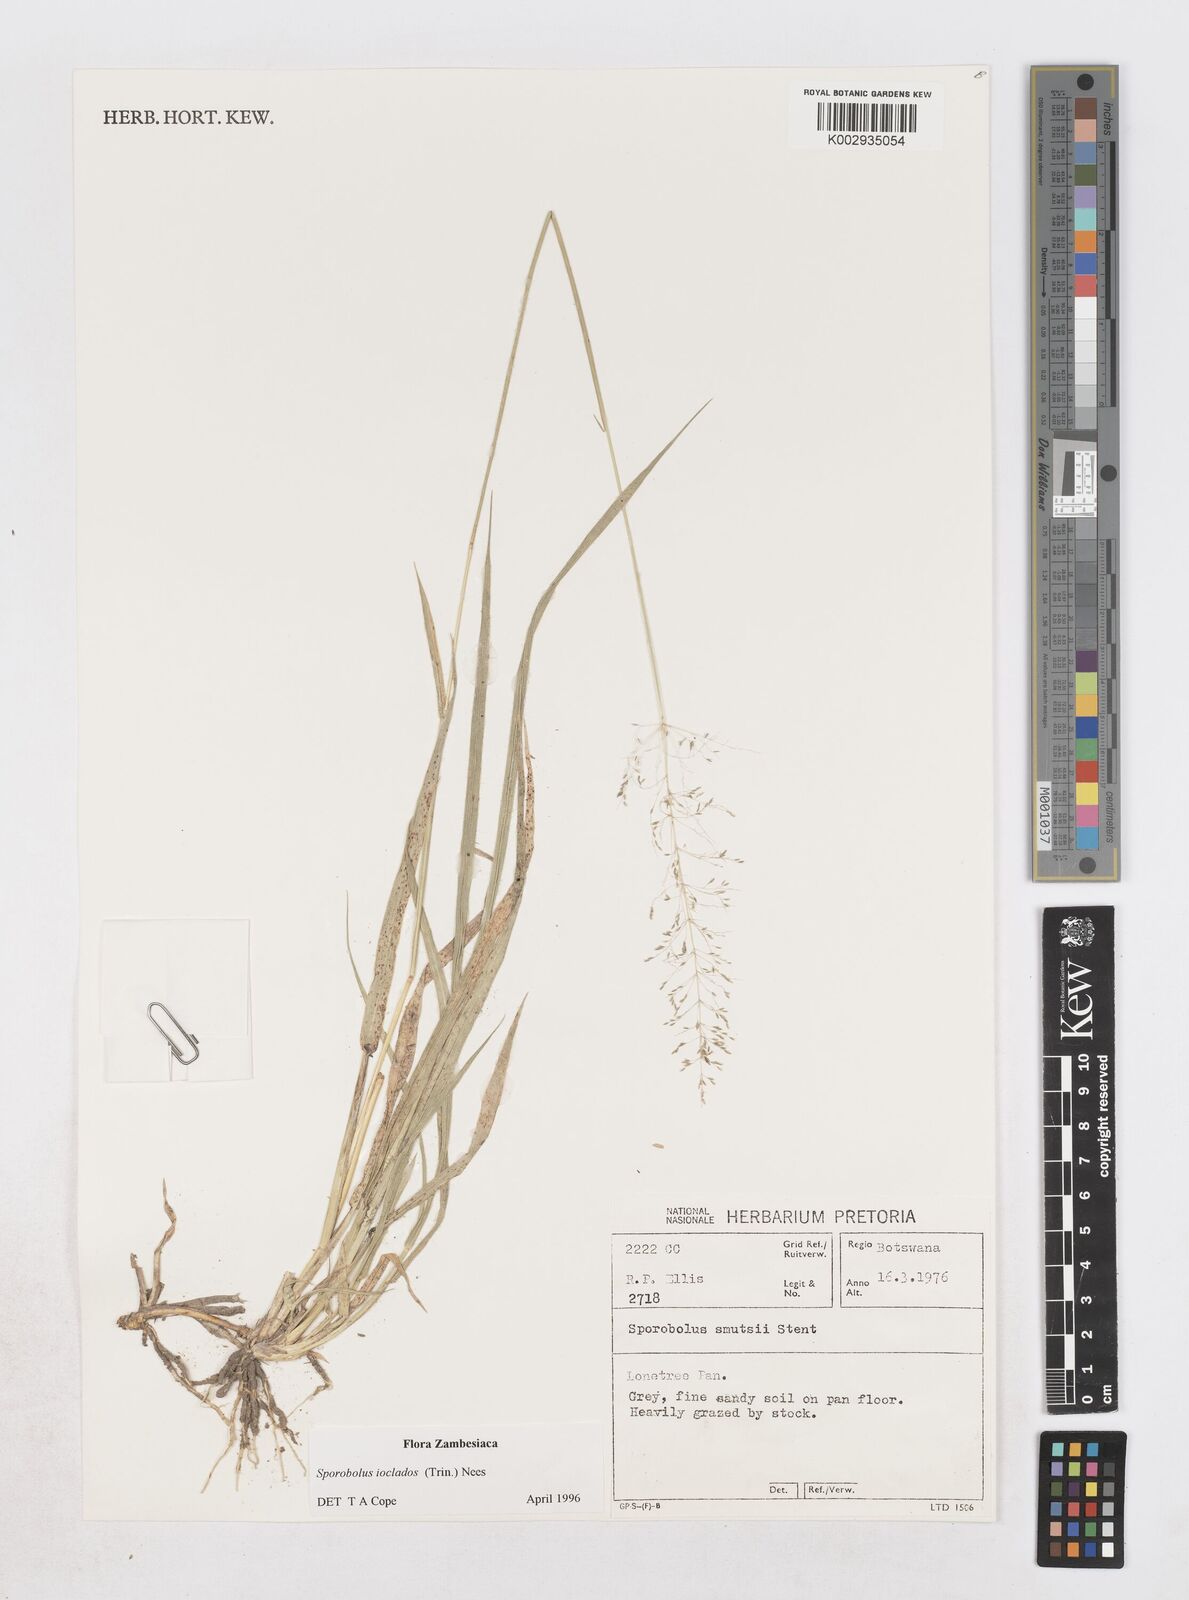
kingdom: Plantae
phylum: Tracheophyta
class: Liliopsida
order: Poales
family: Poaceae
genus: Sporobolus
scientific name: Sporobolus ioclados
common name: Pan dropseed
